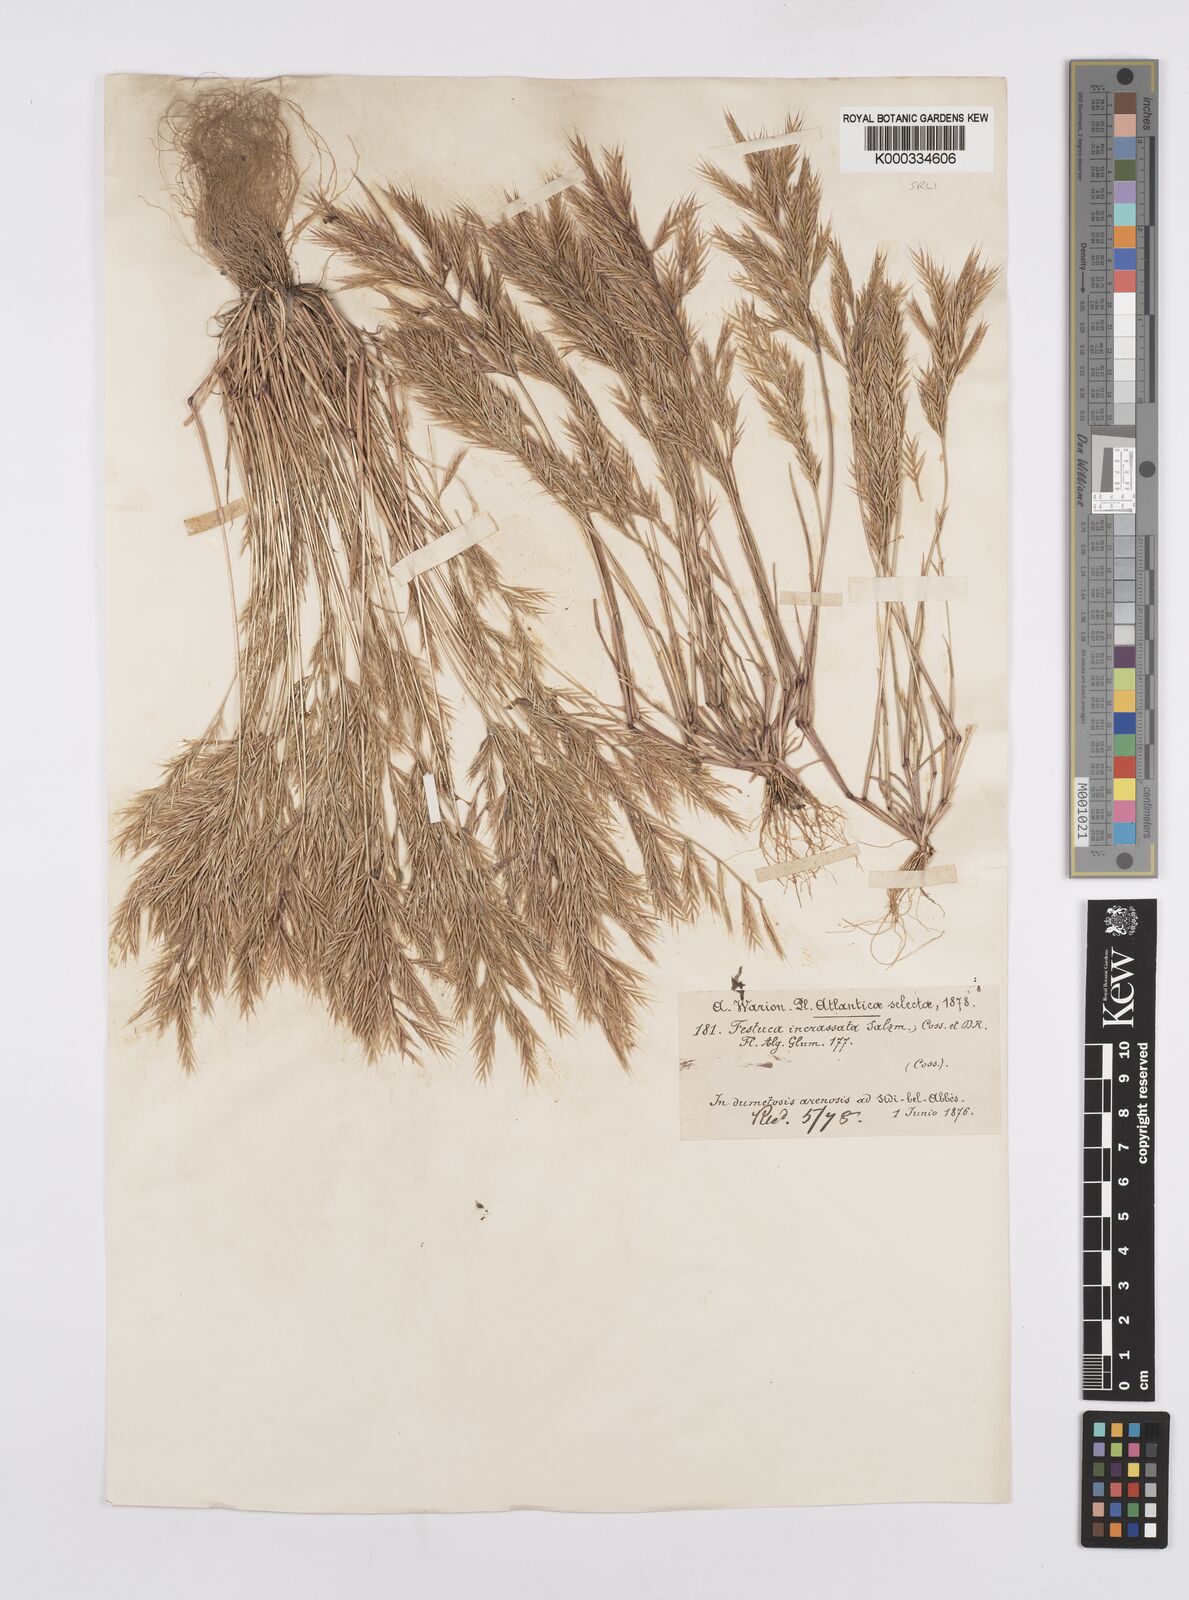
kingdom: Plantae
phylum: Tracheophyta
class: Liliopsida
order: Poales
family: Poaceae
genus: Vulpiella
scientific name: Vulpiella stipoides
